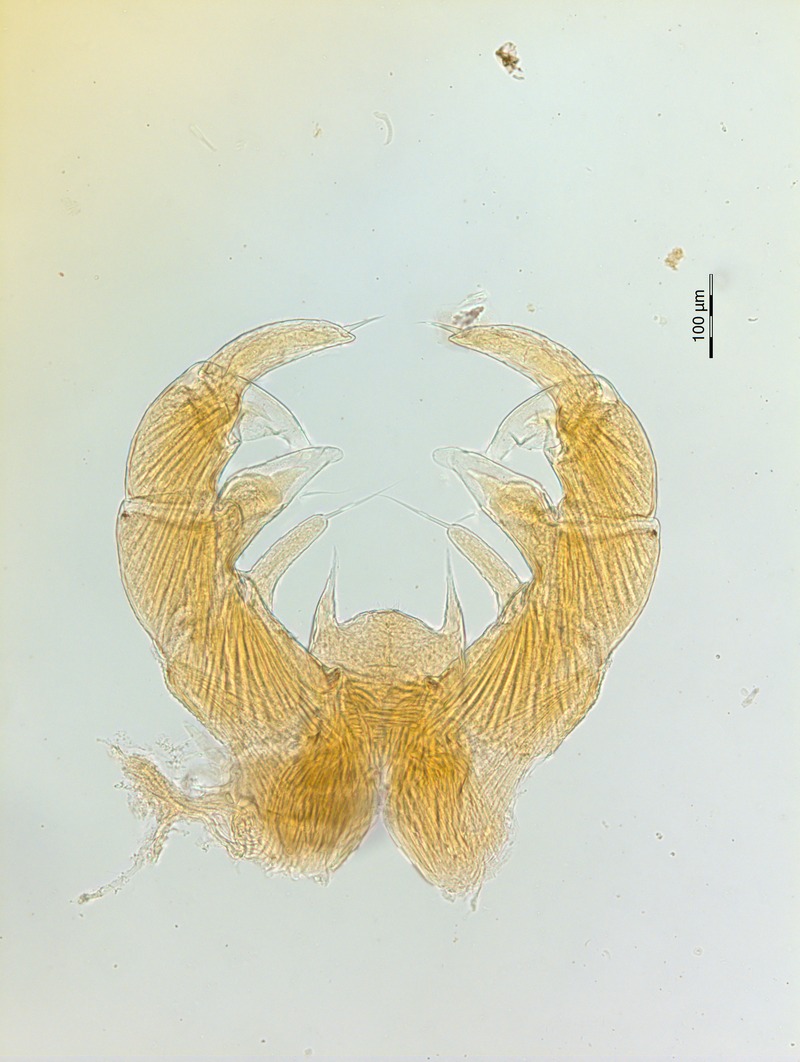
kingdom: Animalia
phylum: Arthropoda
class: Diplopoda
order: Glomerida
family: Glomeridae
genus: Trachysphaera
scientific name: Trachysphaera apenninorum
